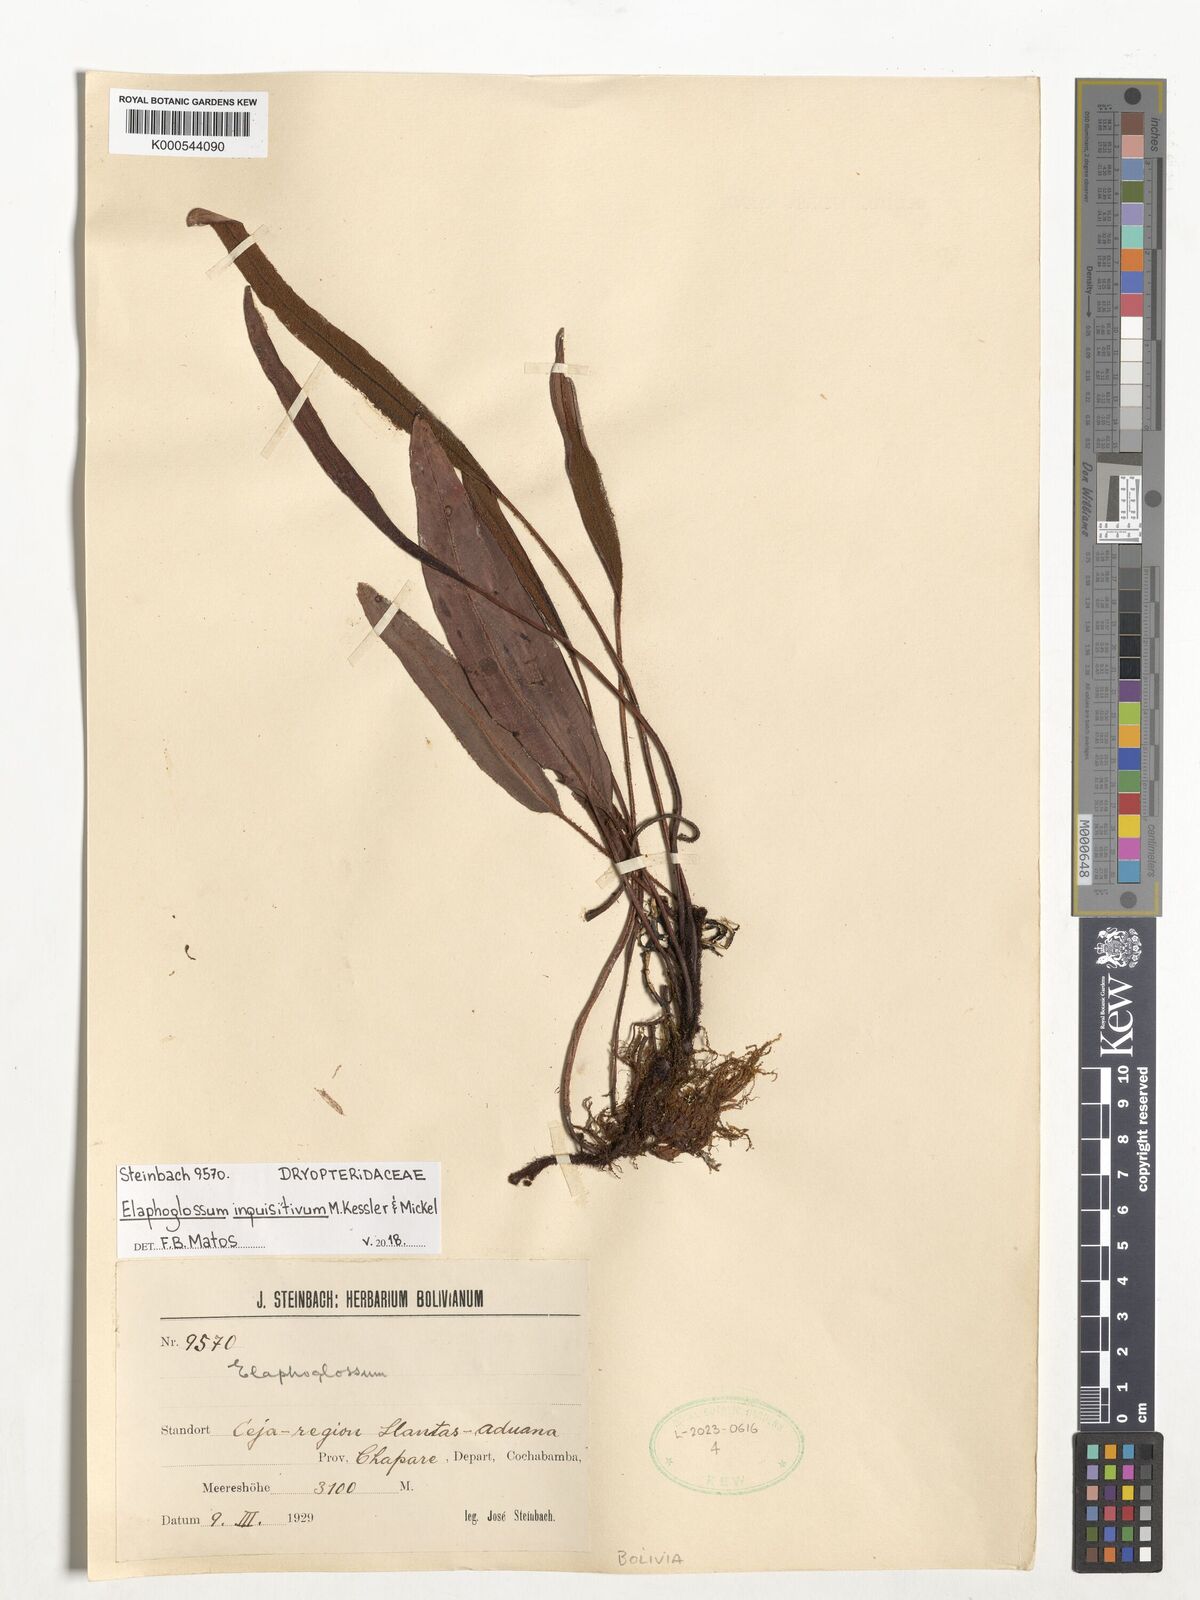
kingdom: Plantae
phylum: Tracheophyta
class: Polypodiopsida
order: Polypodiales
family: Dryopteridaceae
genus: Elaphoglossum
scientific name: Elaphoglossum inquisitivum
